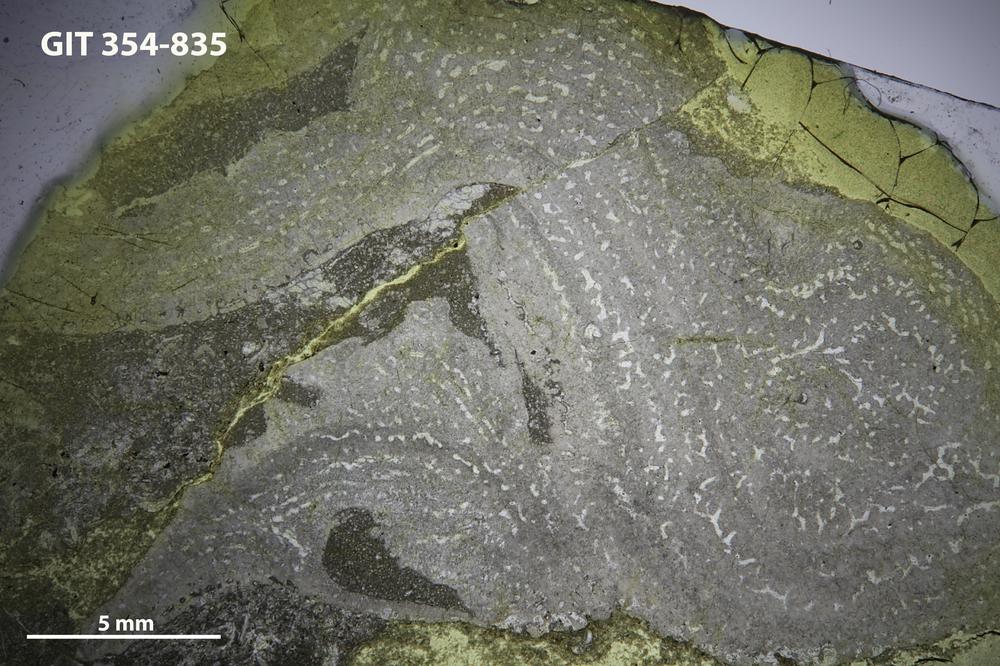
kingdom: Animalia
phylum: Porifera
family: Stromatoporidae
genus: Parallelostroma
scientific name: Parallelostroma
